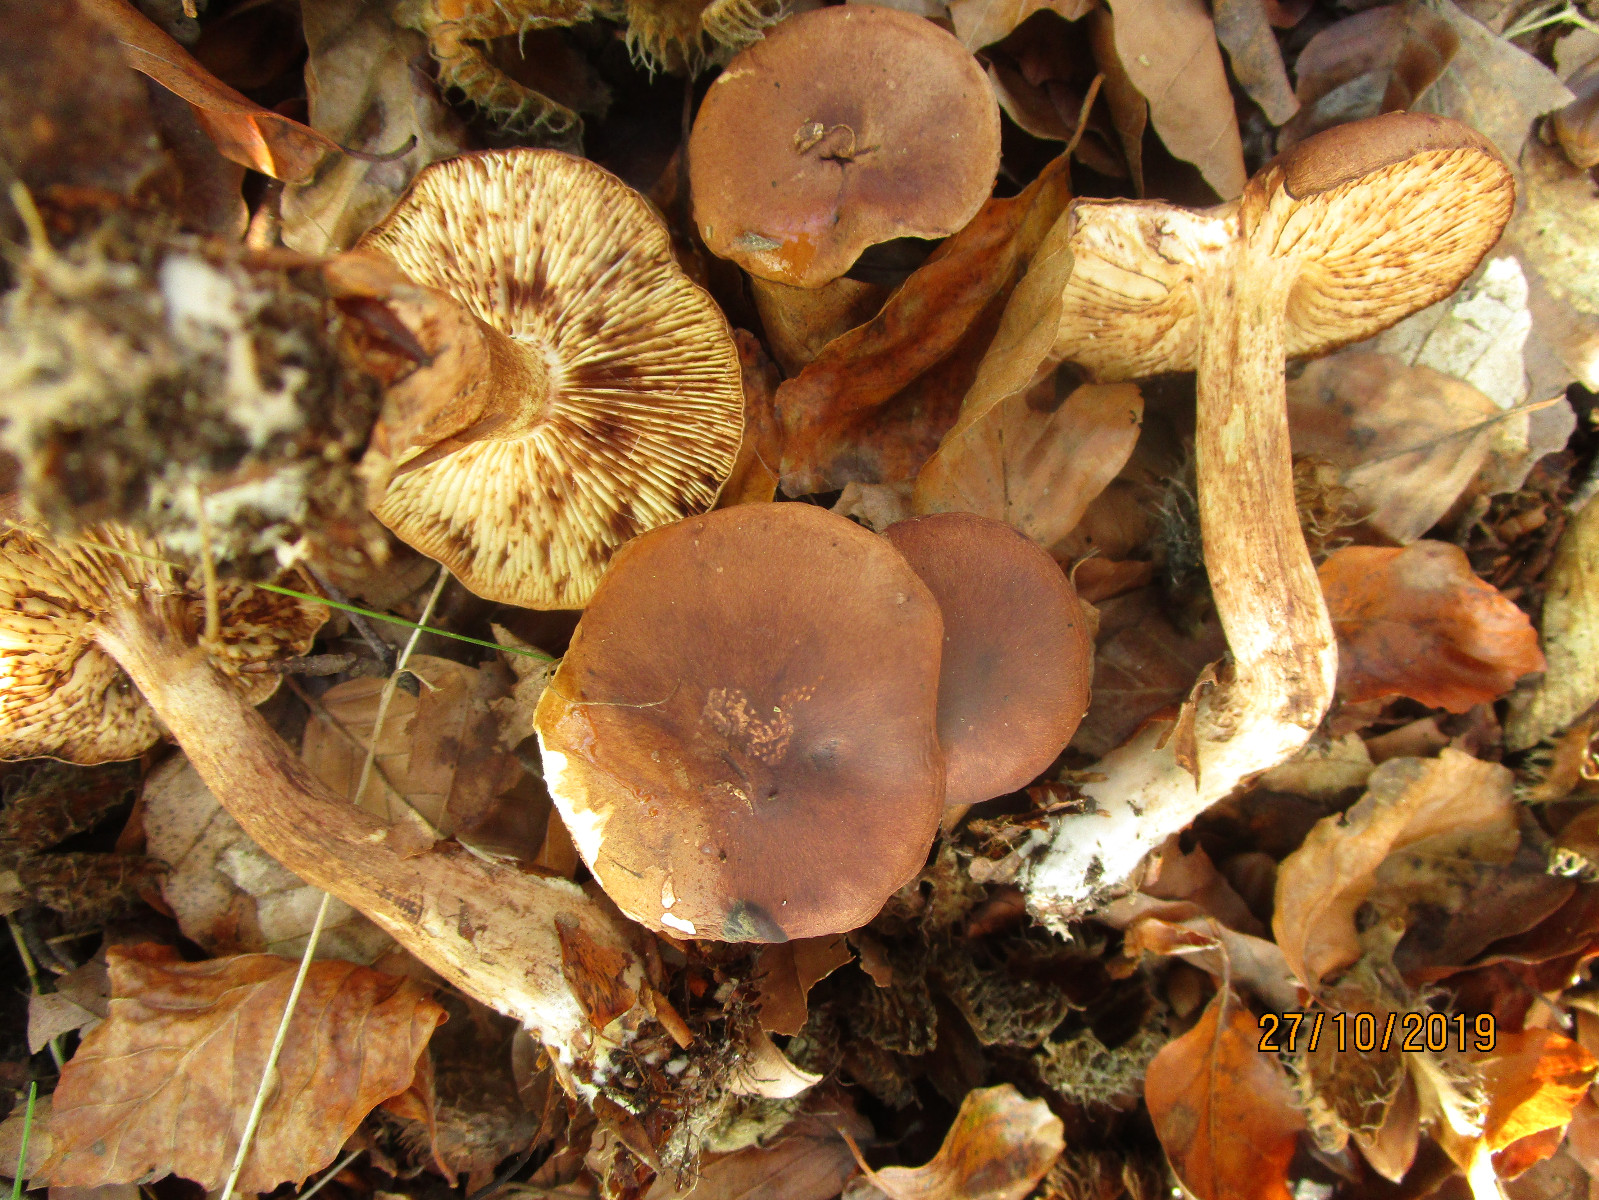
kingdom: Fungi
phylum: Basidiomycota
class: Agaricomycetes
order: Agaricales
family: Tricholomataceae
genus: Tricholoma
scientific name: Tricholoma ustale
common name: sveden ridderhat
